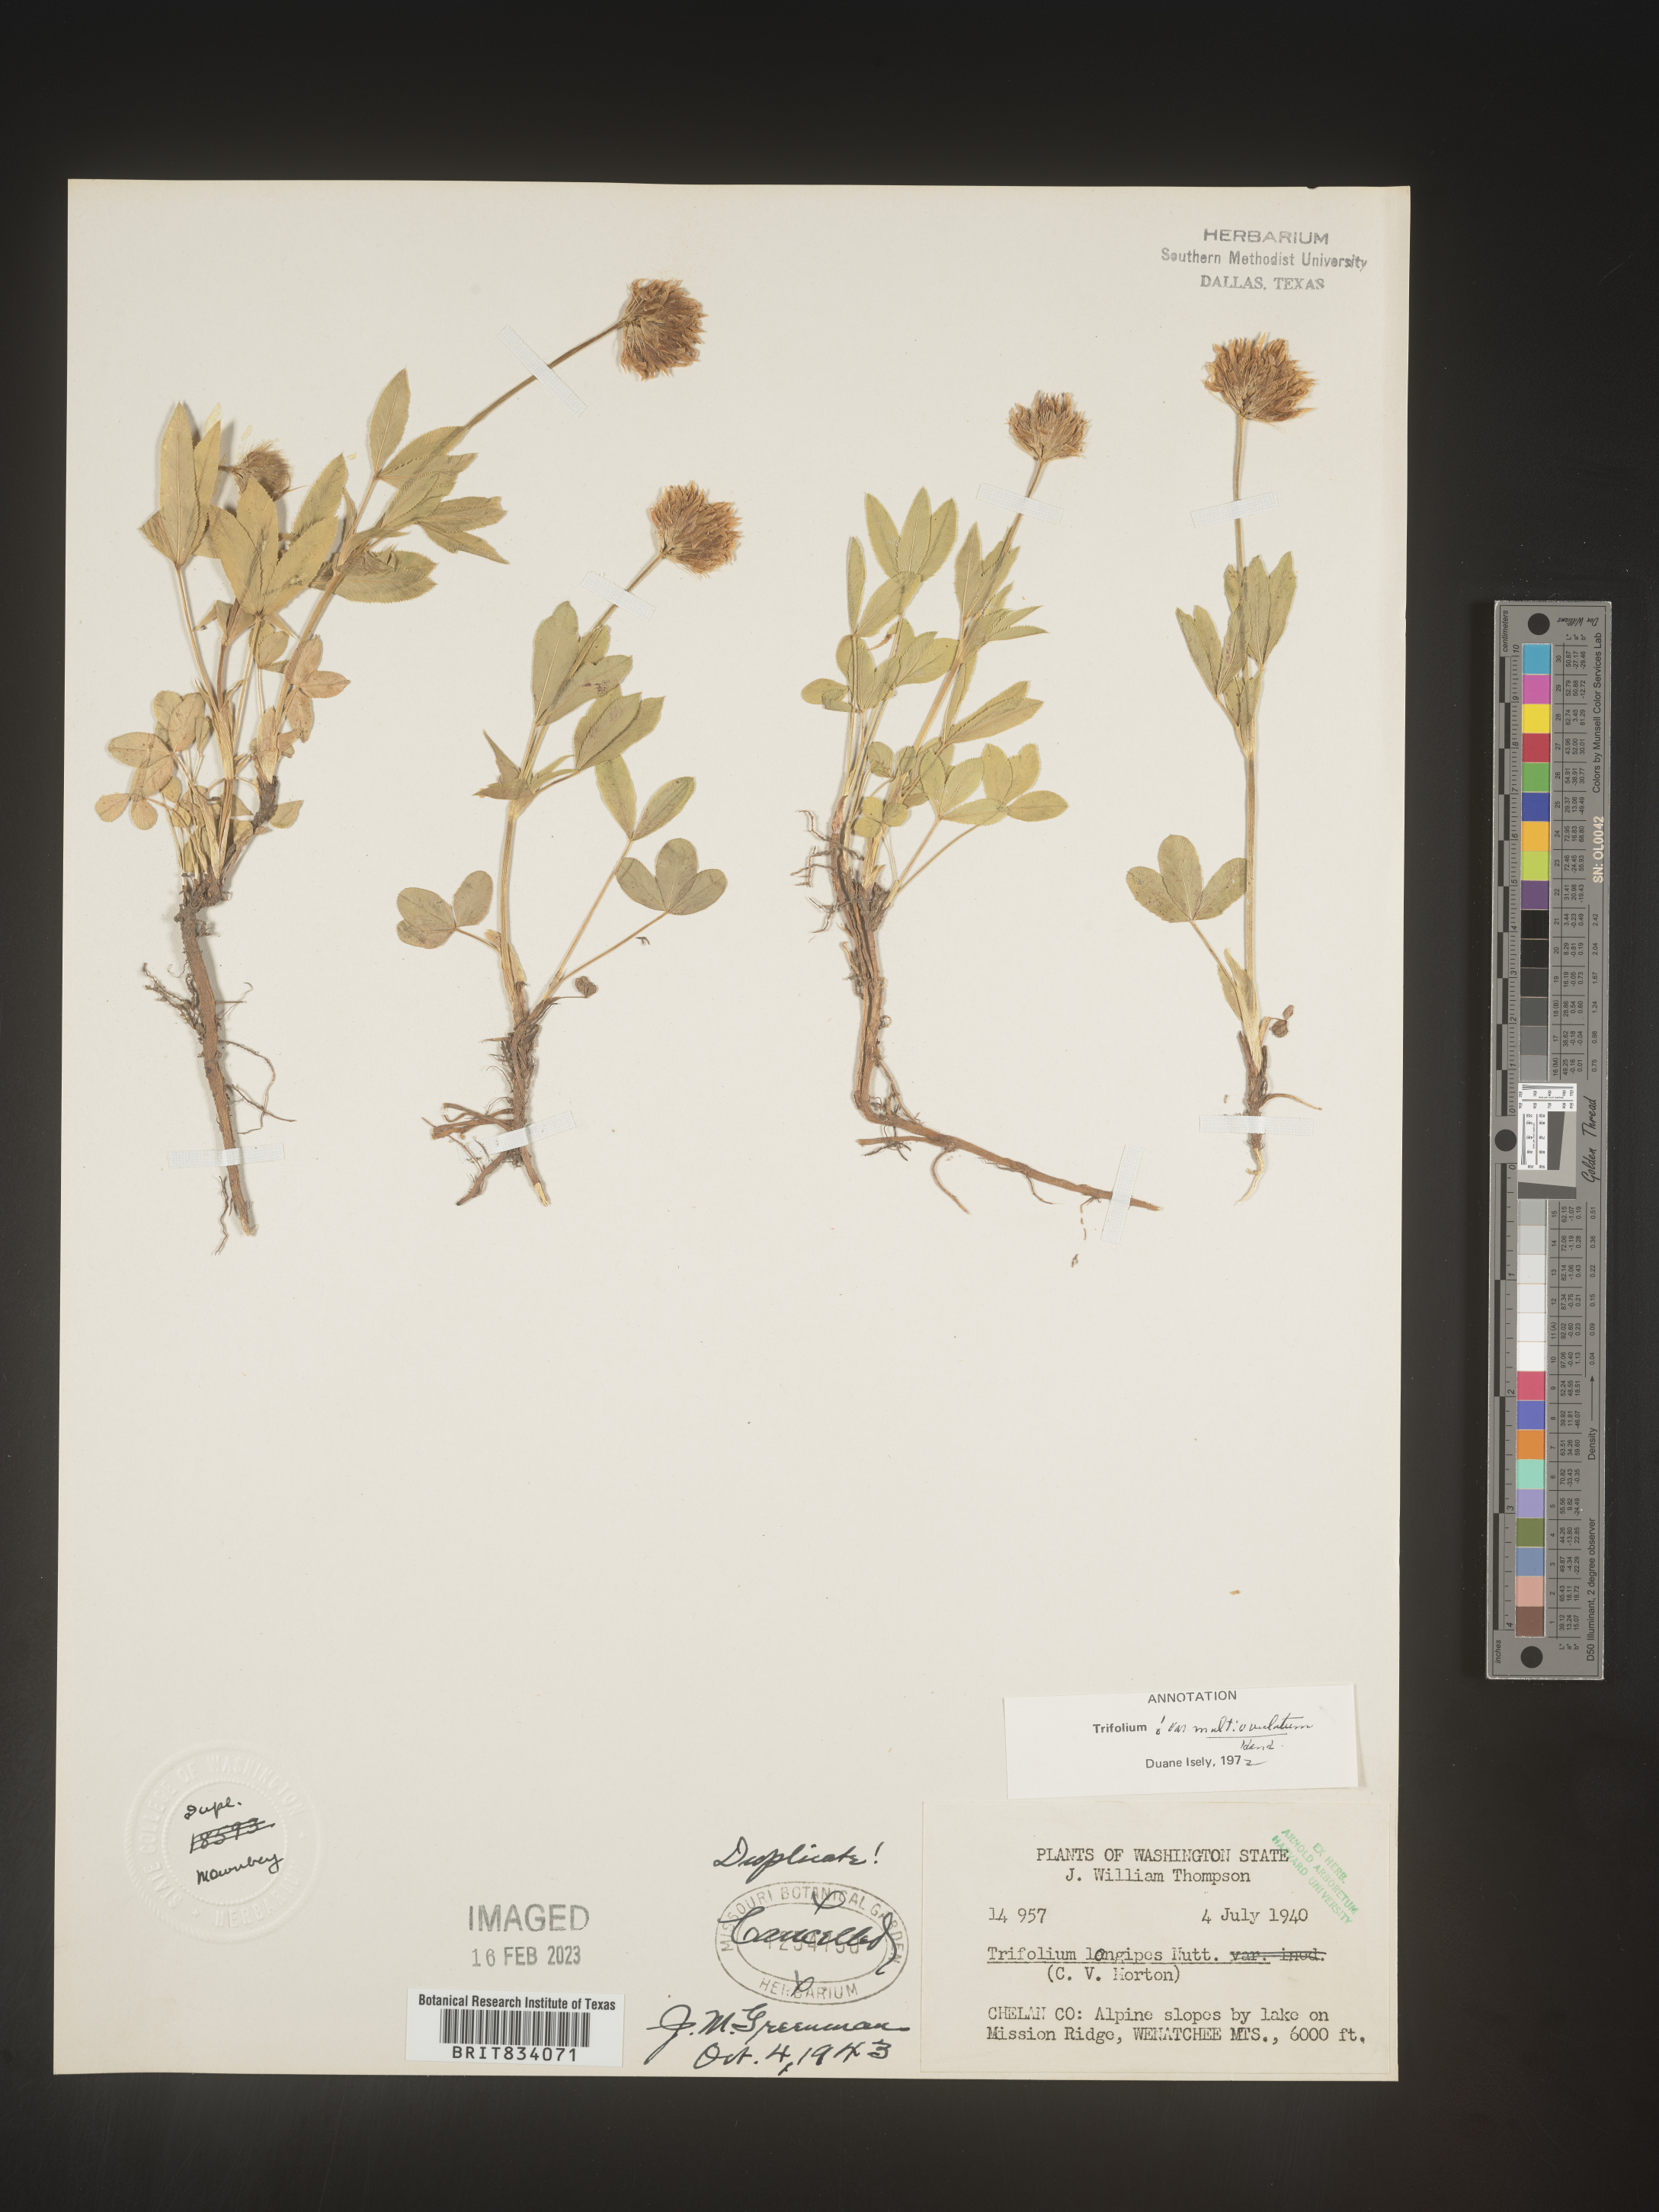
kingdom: Plantae
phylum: Tracheophyta
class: Magnoliopsida
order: Fabales
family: Fabaceae
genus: Trifolium
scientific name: Trifolium
